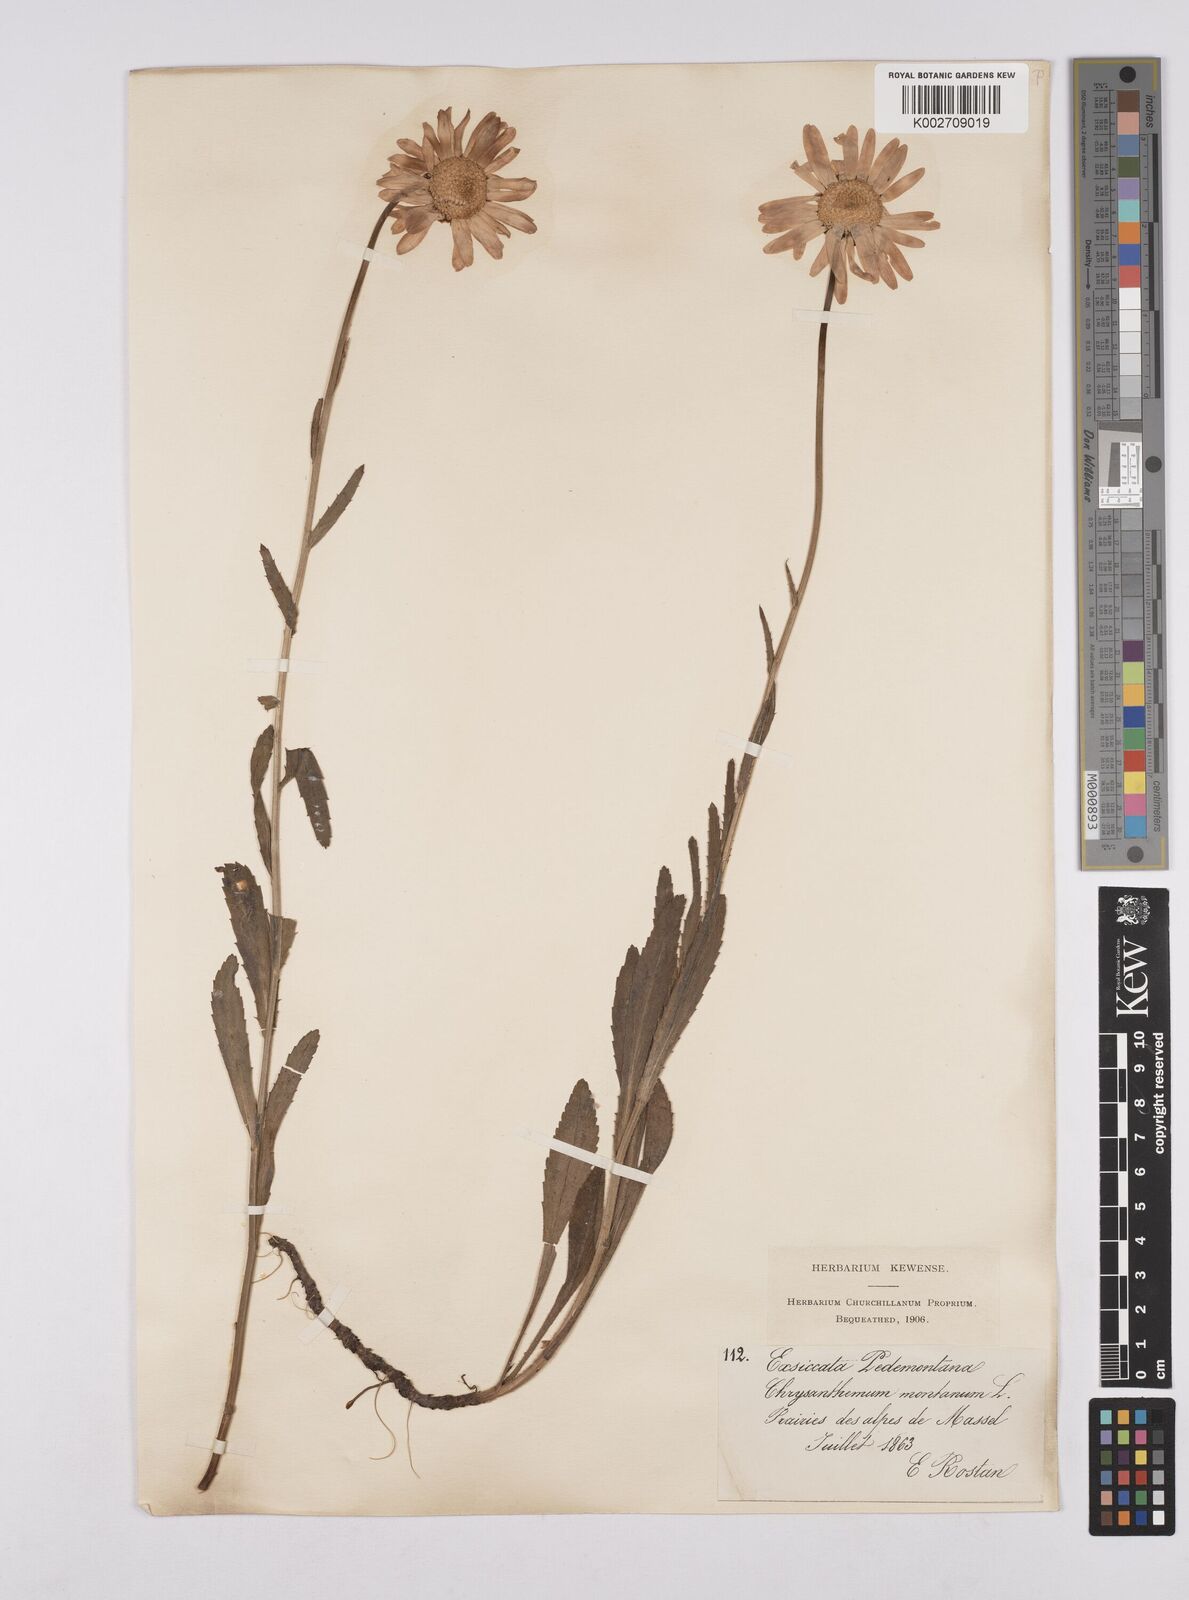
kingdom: Plantae
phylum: Tracheophyta
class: Magnoliopsida
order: Asterales
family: Asteraceae
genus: Leucanthemum
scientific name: Leucanthemum heterophyllum
